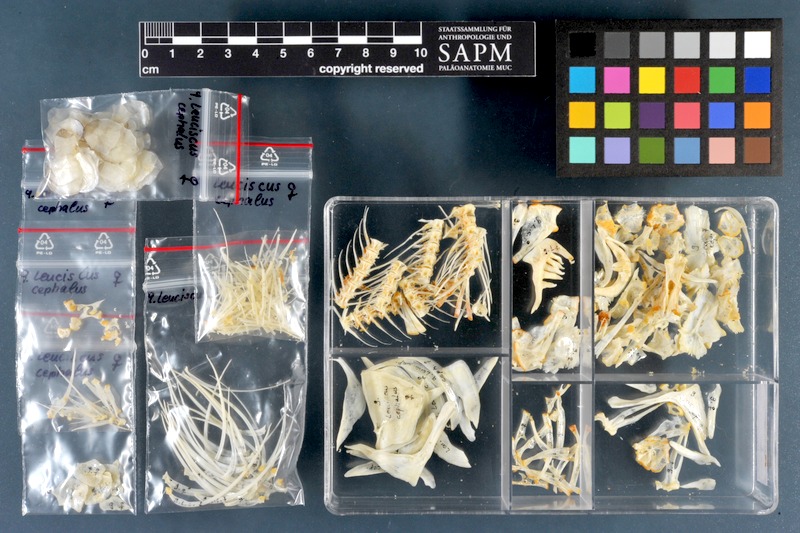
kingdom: Animalia
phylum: Chordata
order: Cypriniformes
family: Cyprinidae
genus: Squalius
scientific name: Squalius cephalus
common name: Chub
